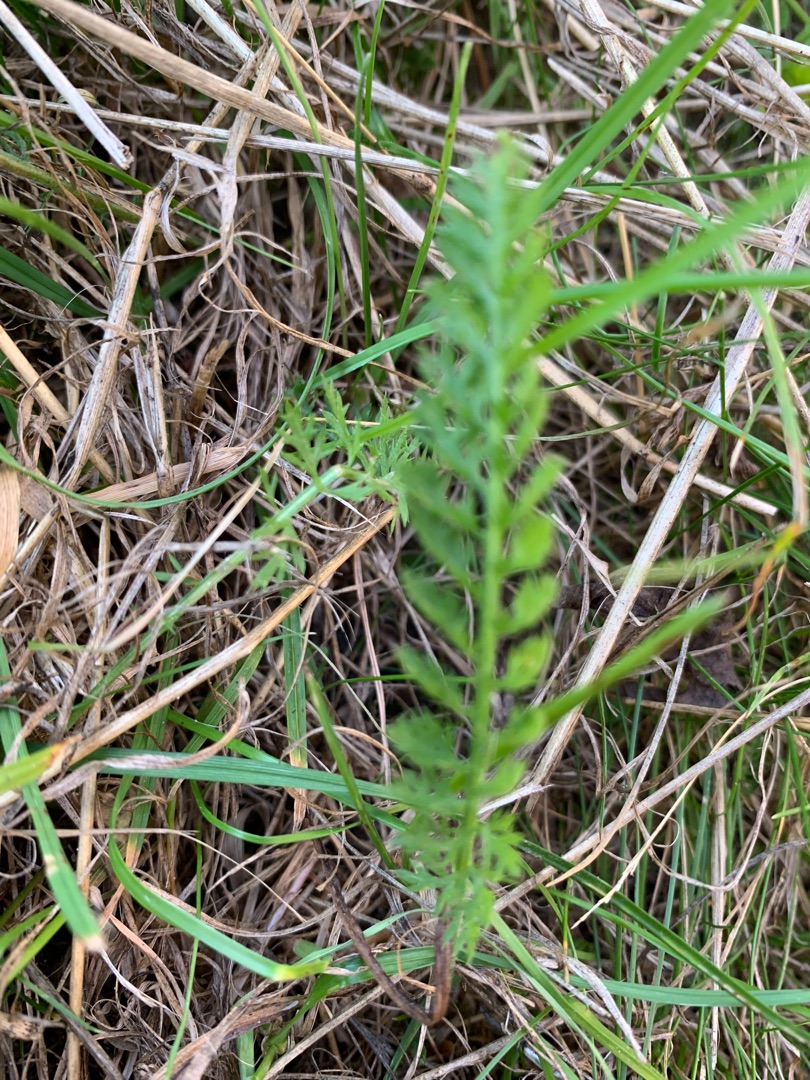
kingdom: Plantae
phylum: Tracheophyta
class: Magnoliopsida
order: Asterales
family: Asteraceae
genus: Achillea
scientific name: Achillea millefolium
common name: Almindelig røllike
